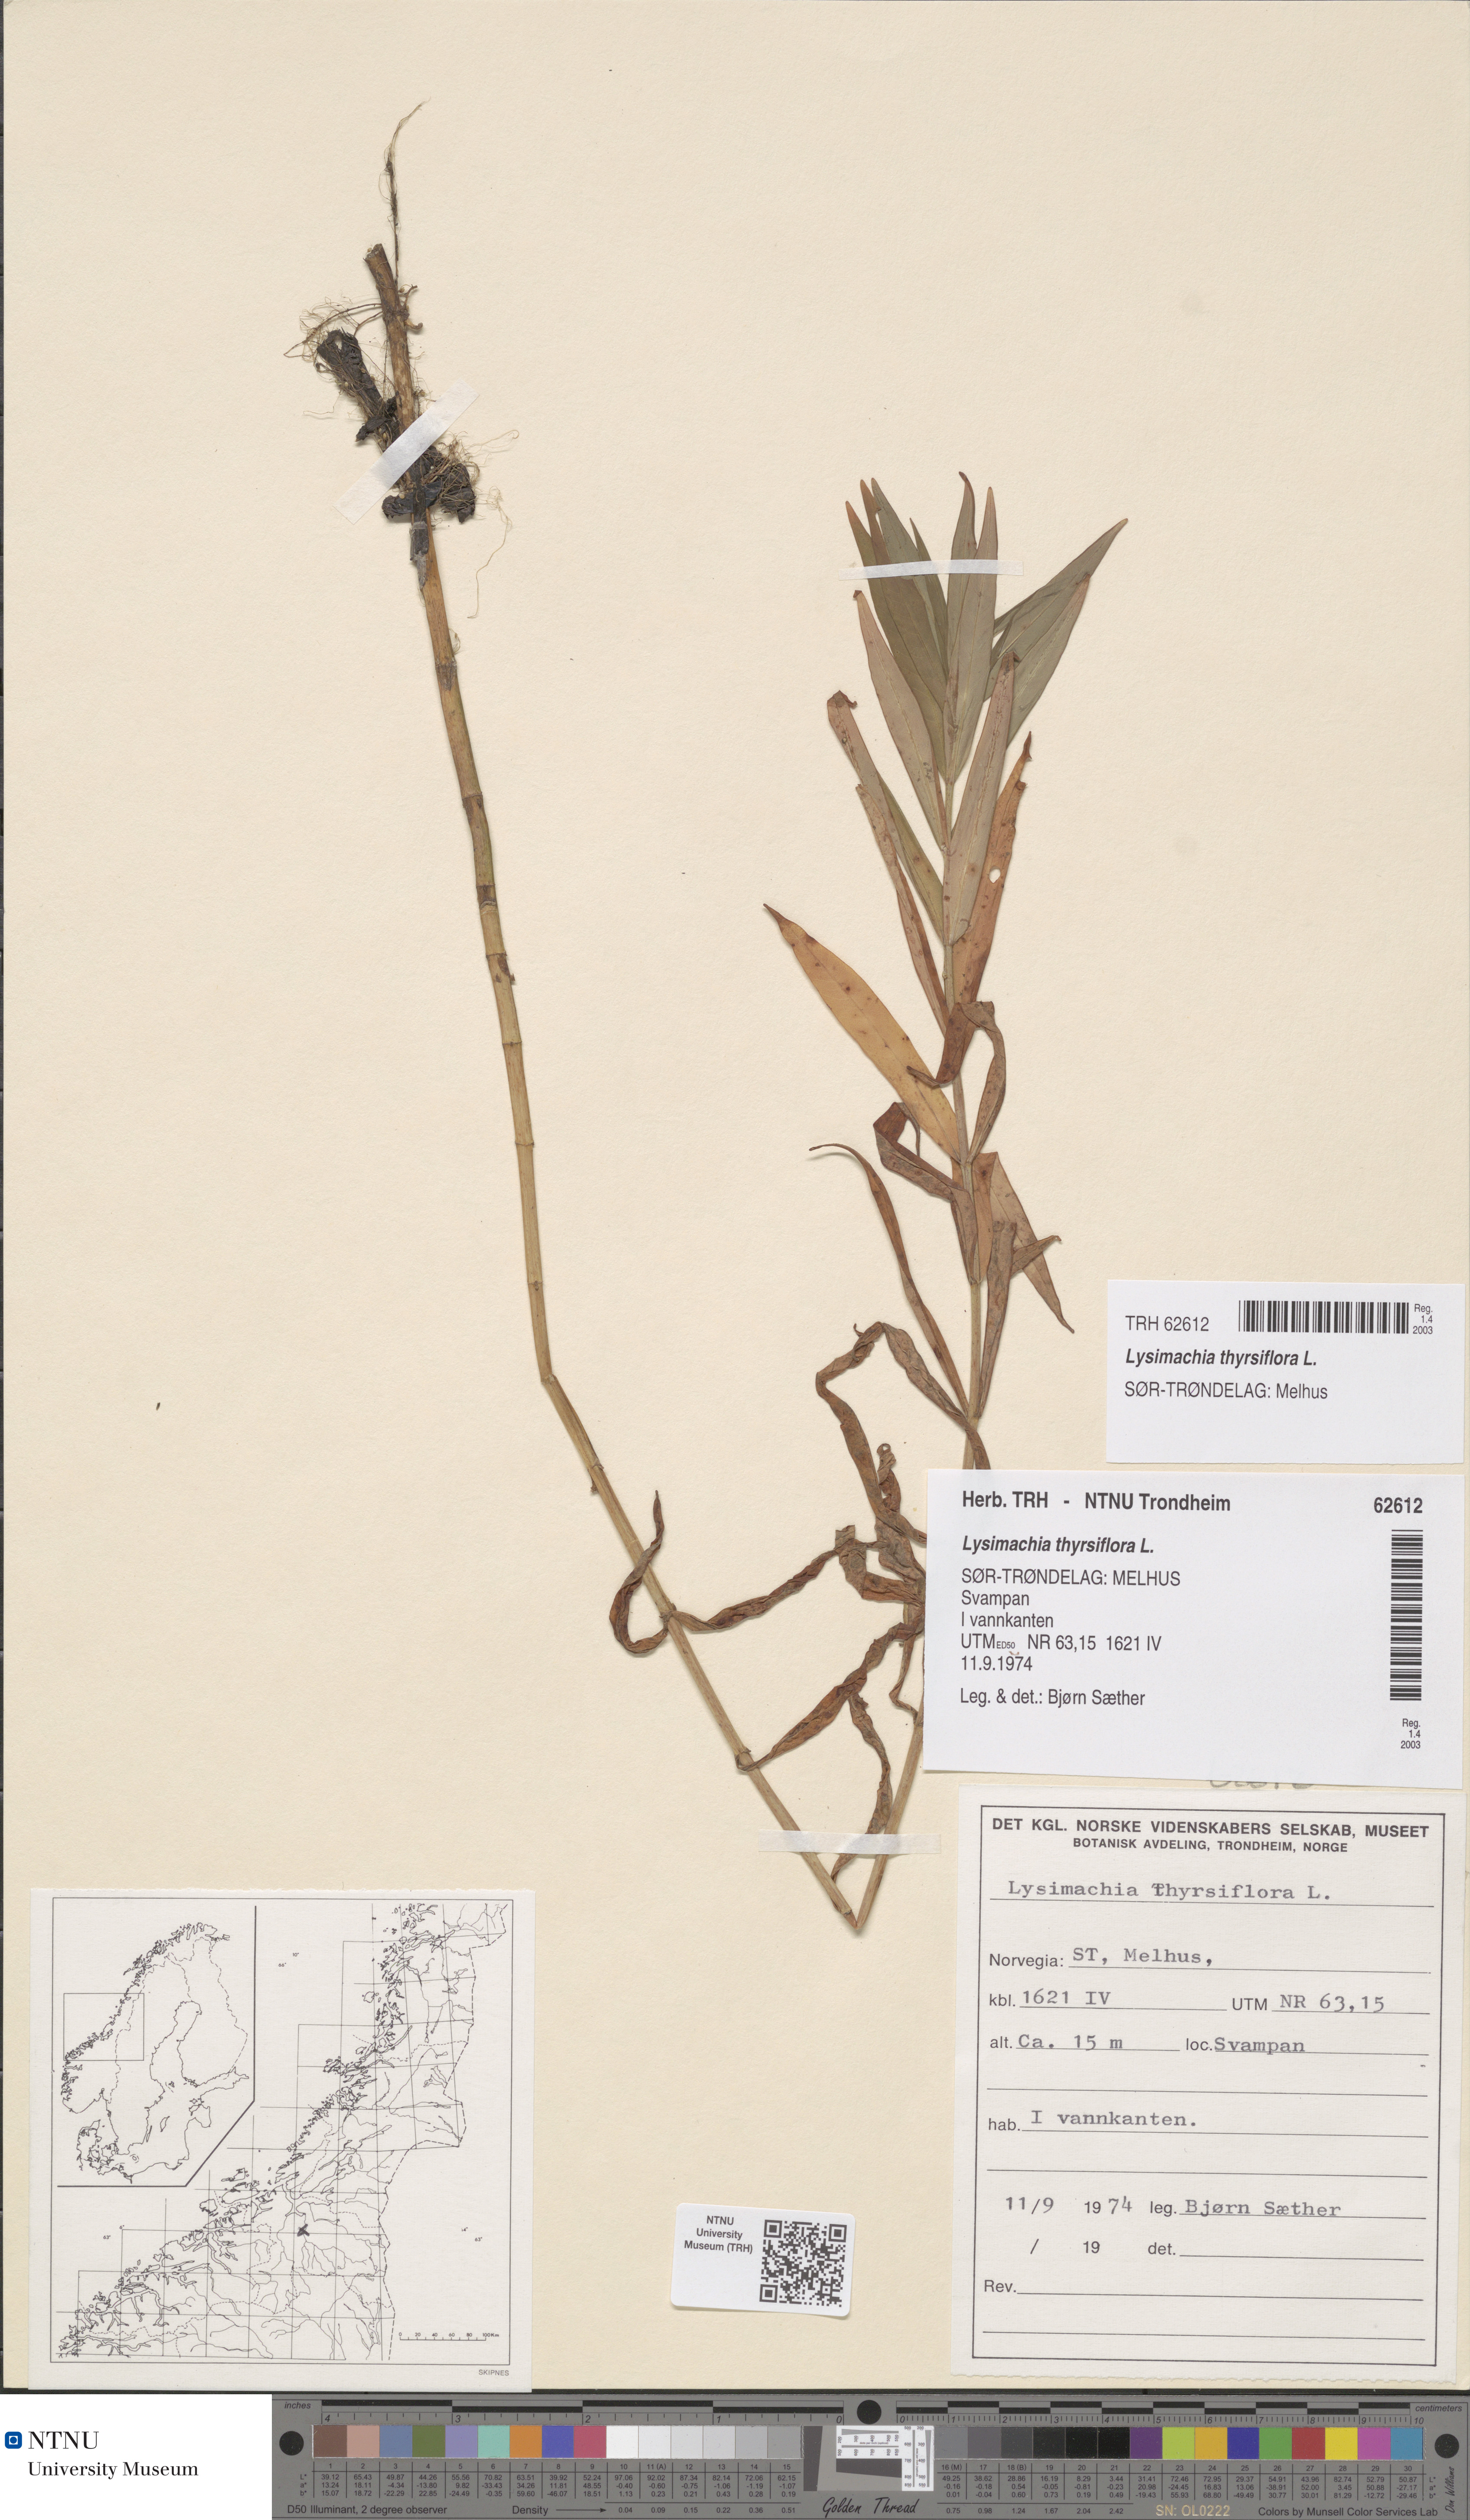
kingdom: Plantae
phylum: Tracheophyta
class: Magnoliopsida
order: Ericales
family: Primulaceae
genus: Lysimachia
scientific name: Lysimachia thyrsiflora
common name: Tufted loosestrife
